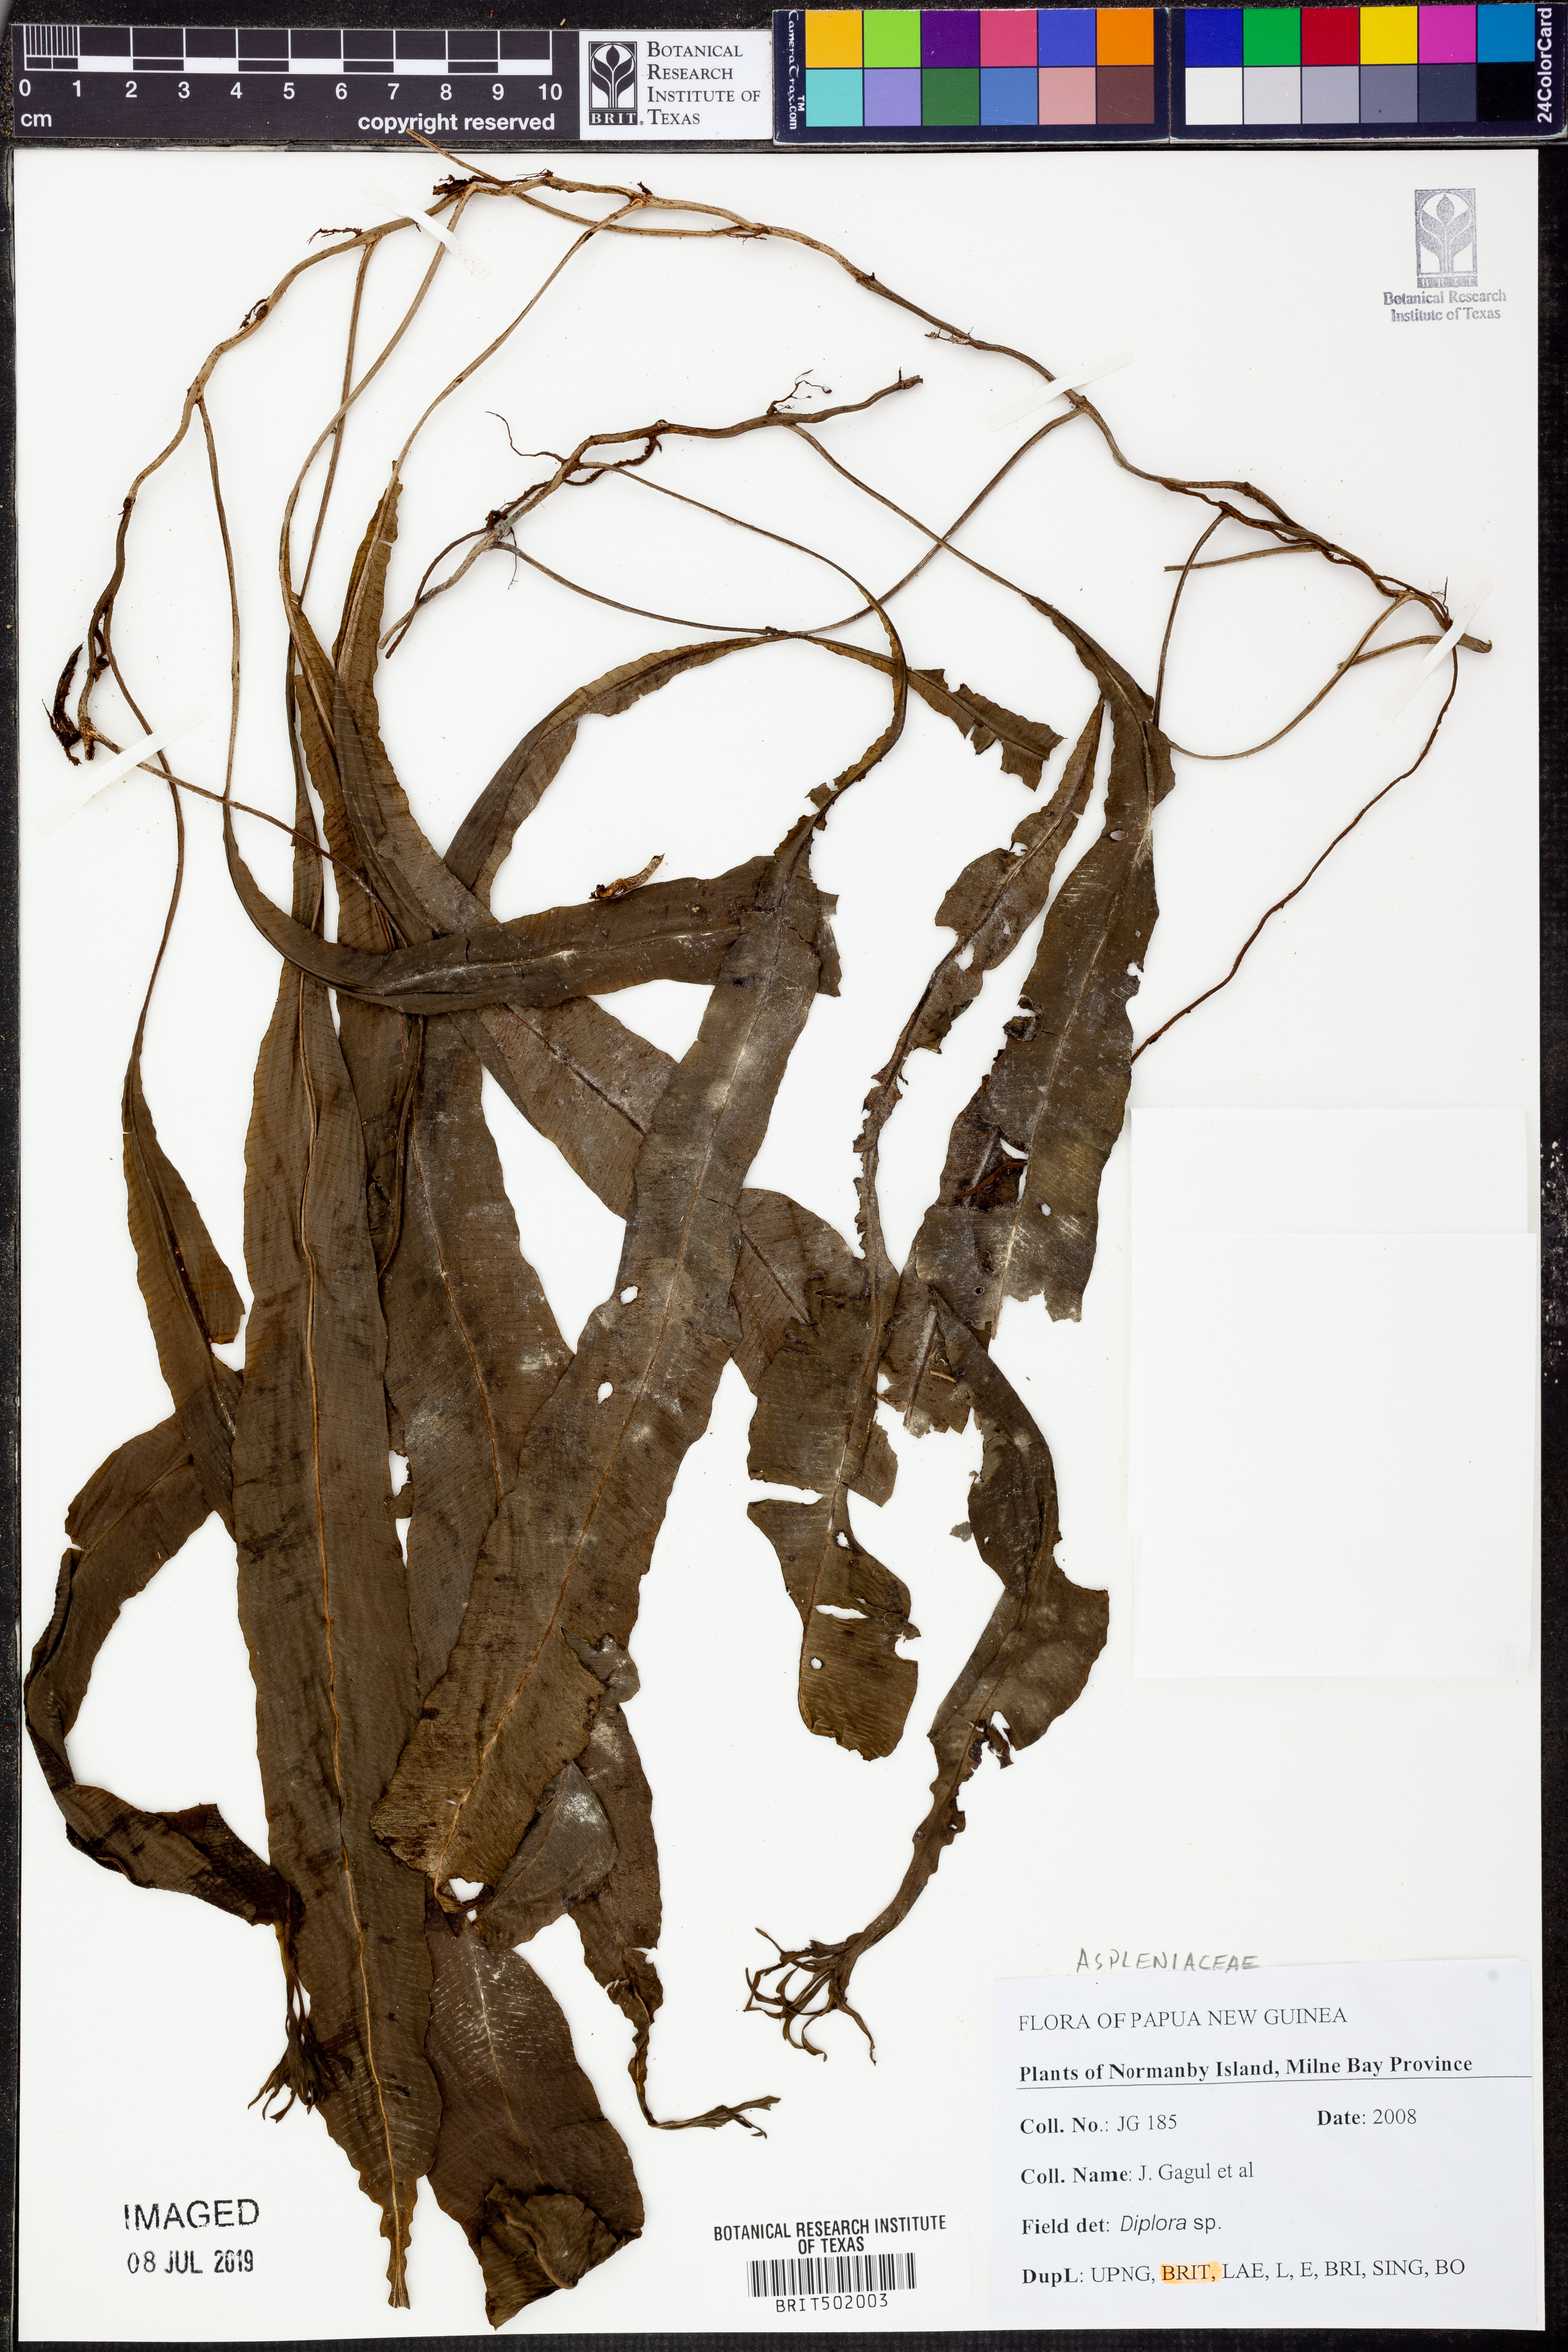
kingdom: Plantae
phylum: Tracheophyta
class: Polypodiopsida
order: Polypodiales
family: Aspleniaceae
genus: Asplenium
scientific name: Asplenium
